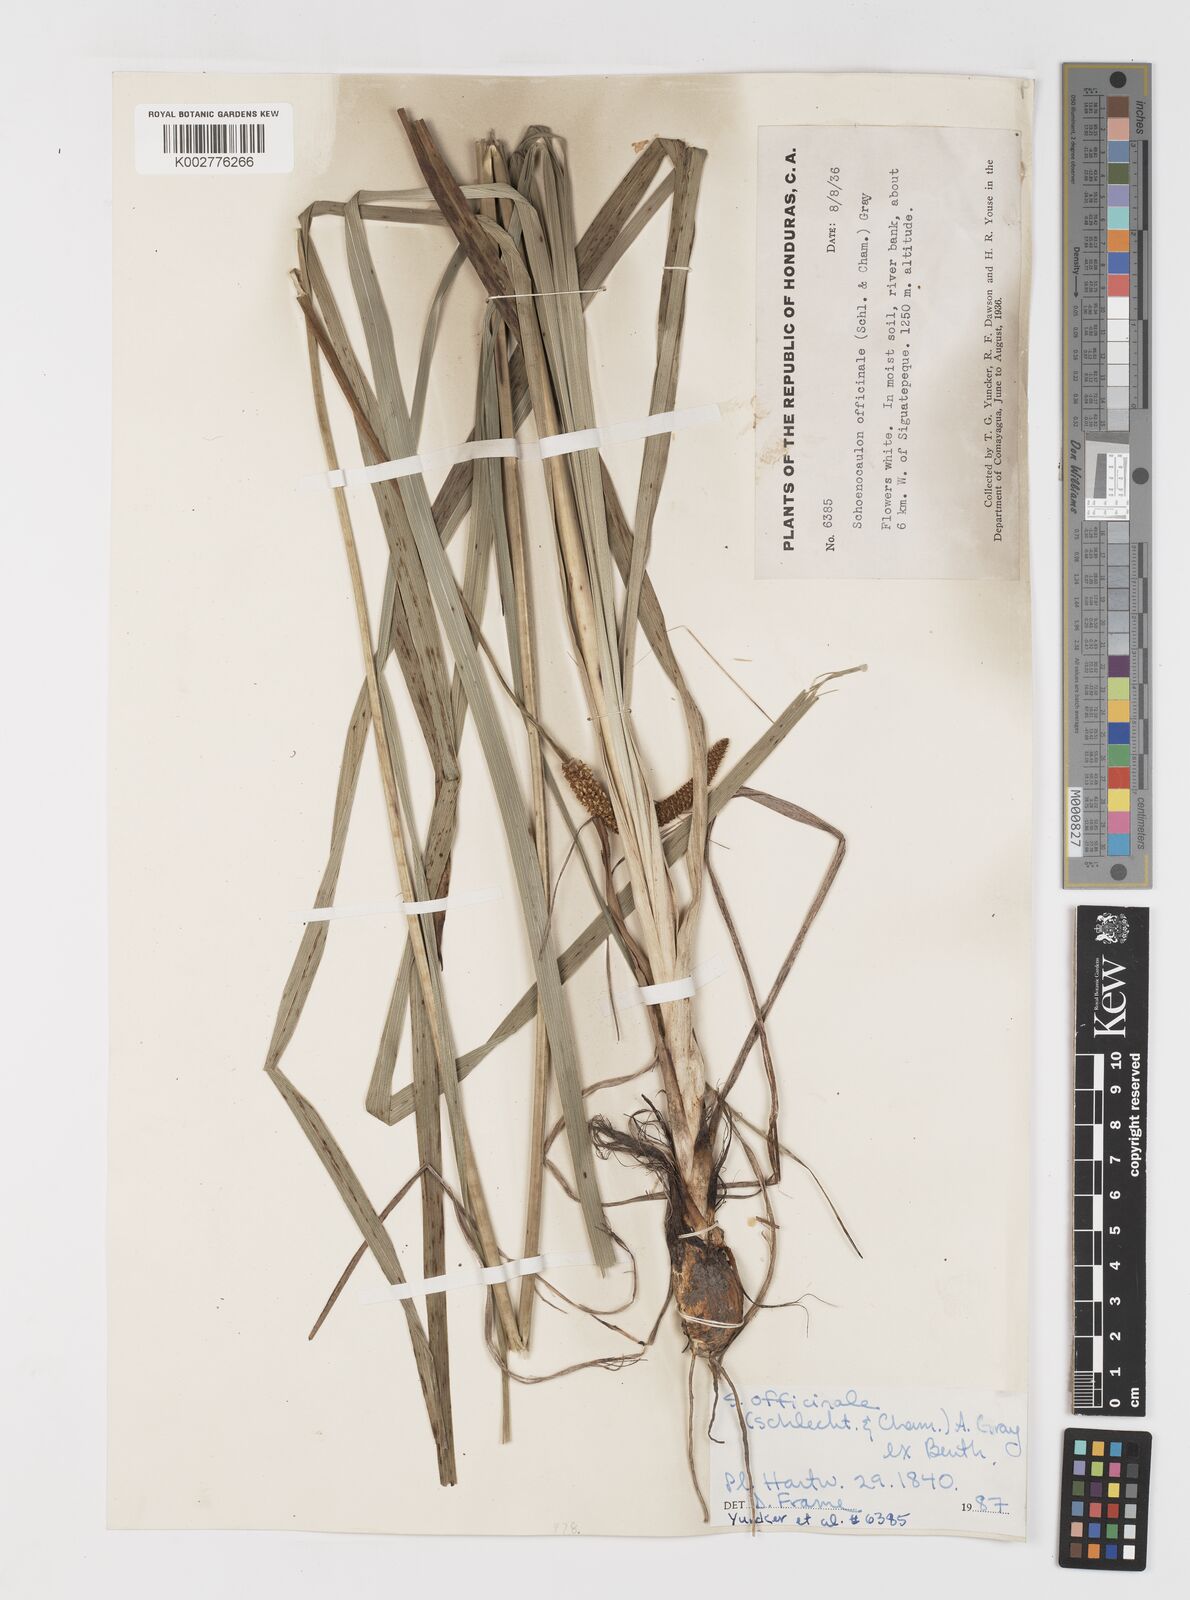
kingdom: Plantae
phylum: Tracheophyta
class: Liliopsida
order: Liliales
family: Melanthiaceae
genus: Schoenocaulon
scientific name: Schoenocaulon officinale
